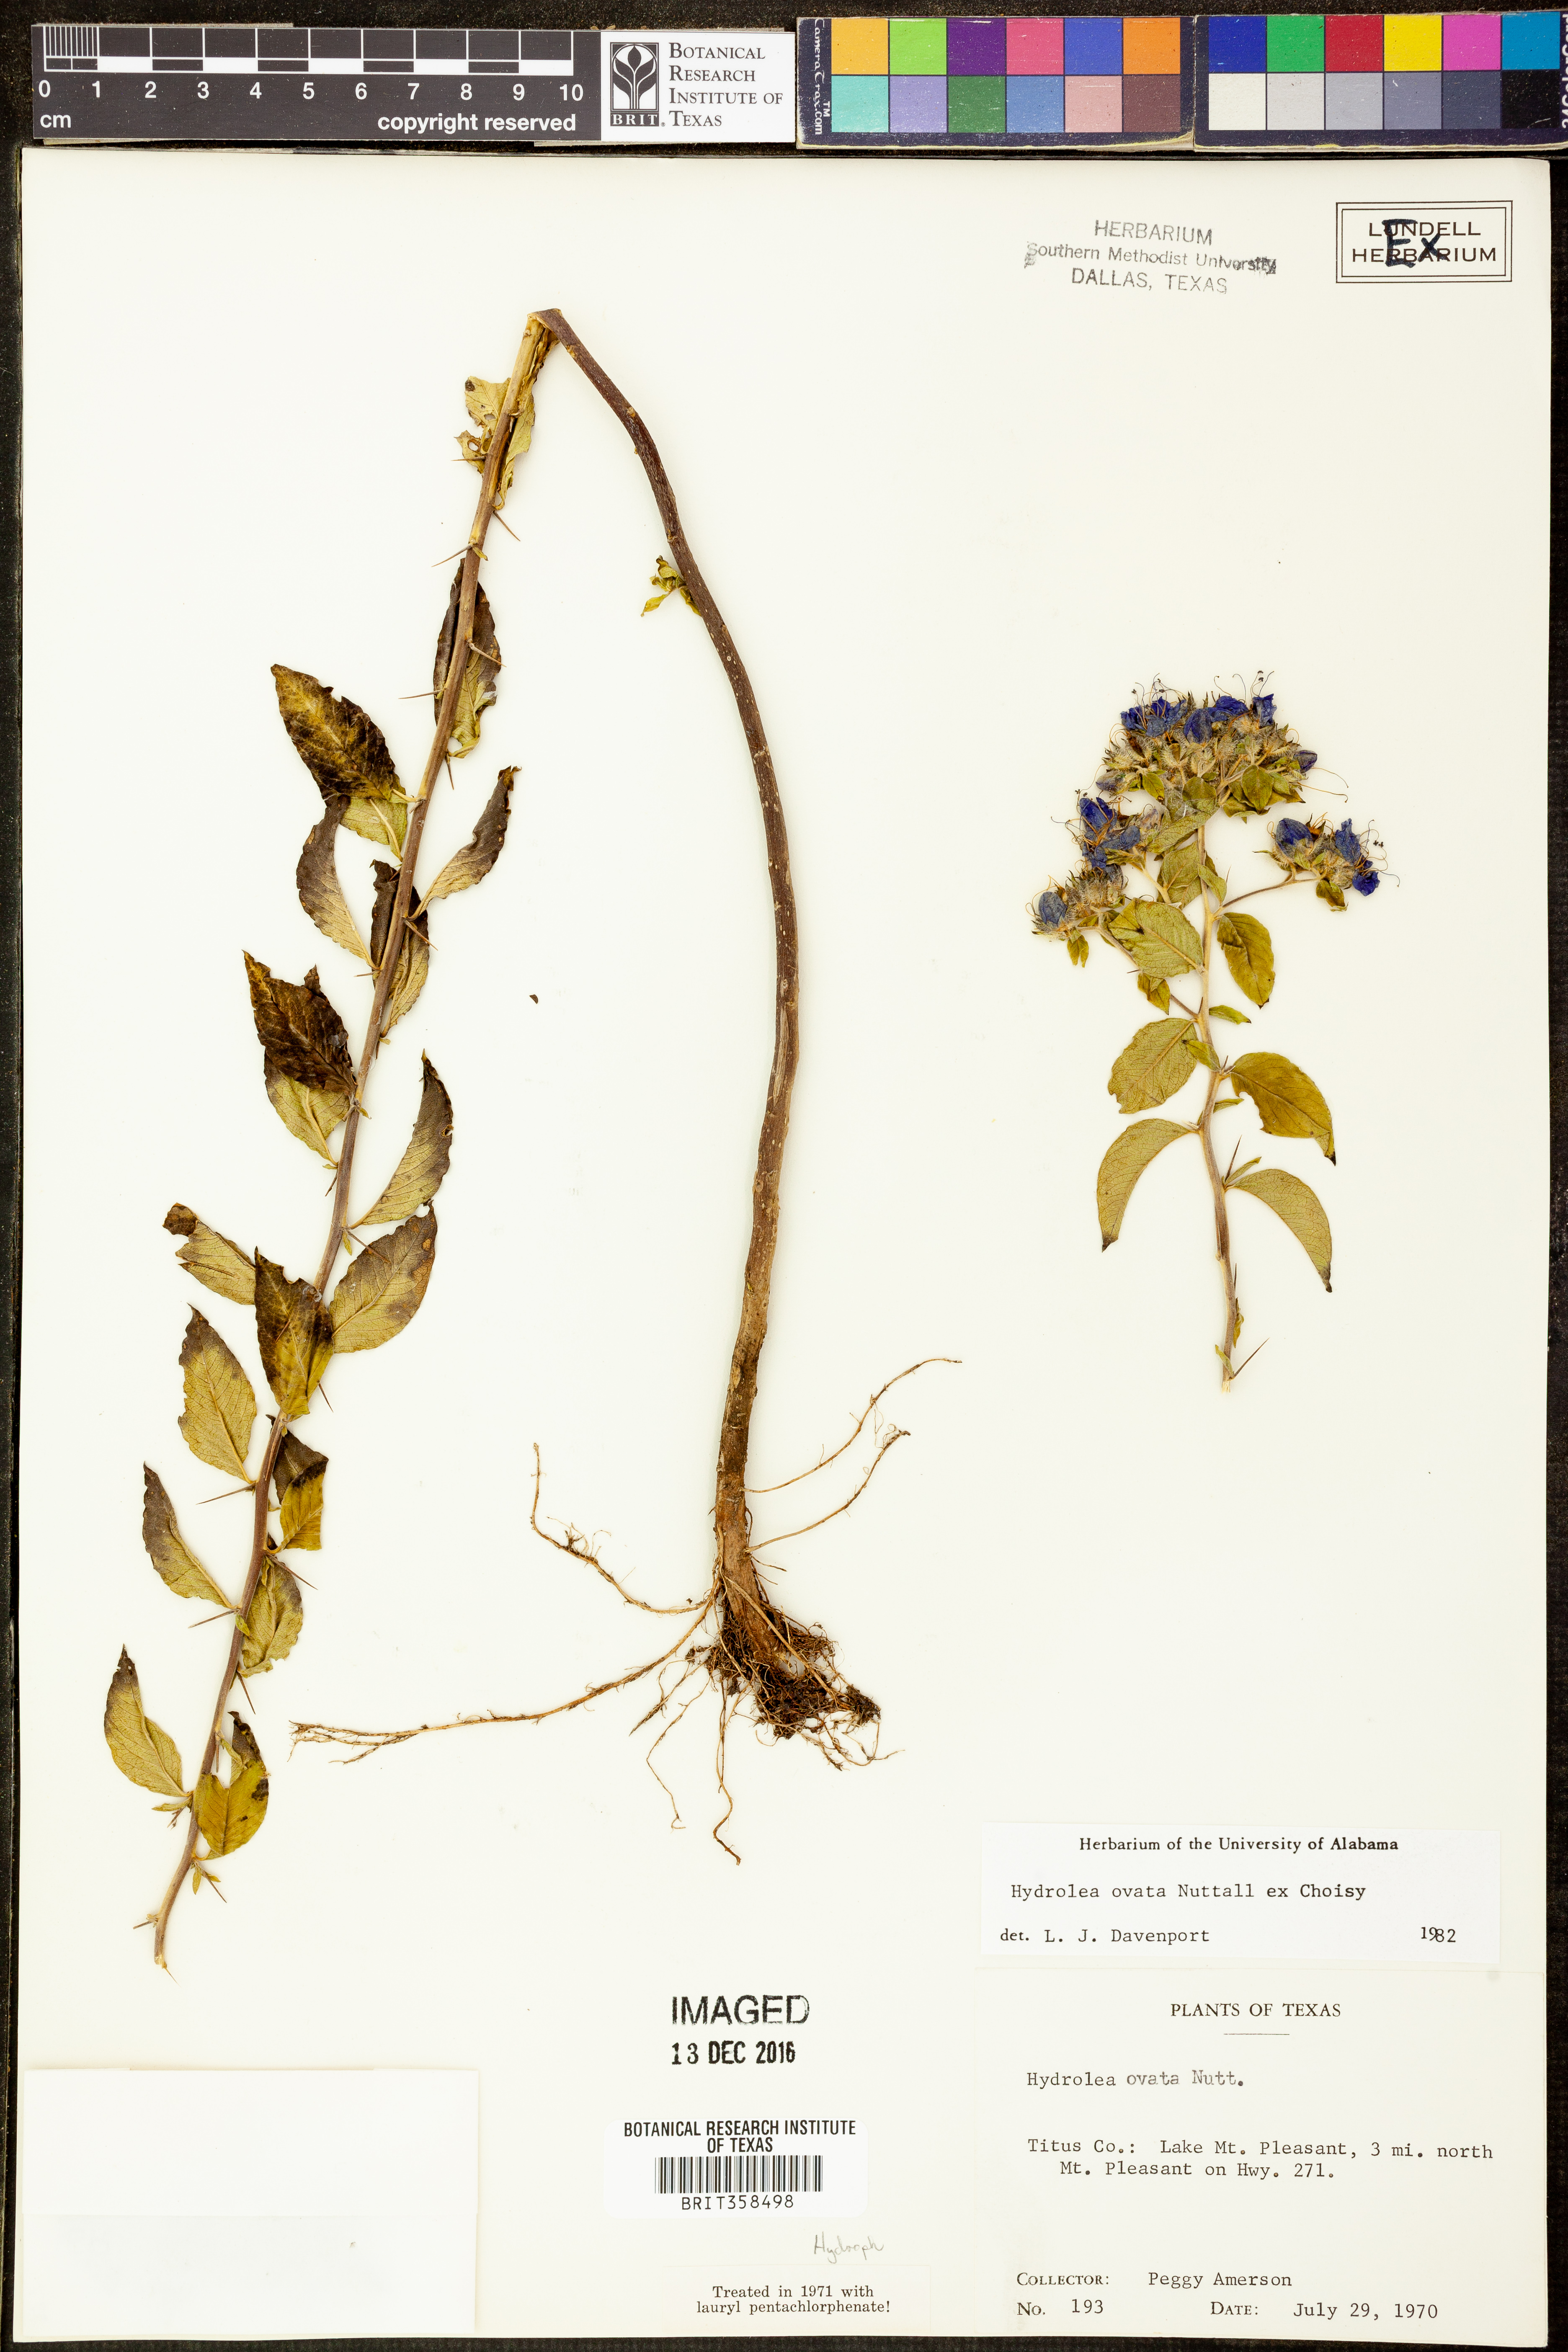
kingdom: Plantae
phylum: Tracheophyta
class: Magnoliopsida
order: Solanales
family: Hydroleaceae
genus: Hydrolea
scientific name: Hydrolea ovata
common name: Ovate false fiddleleaf
